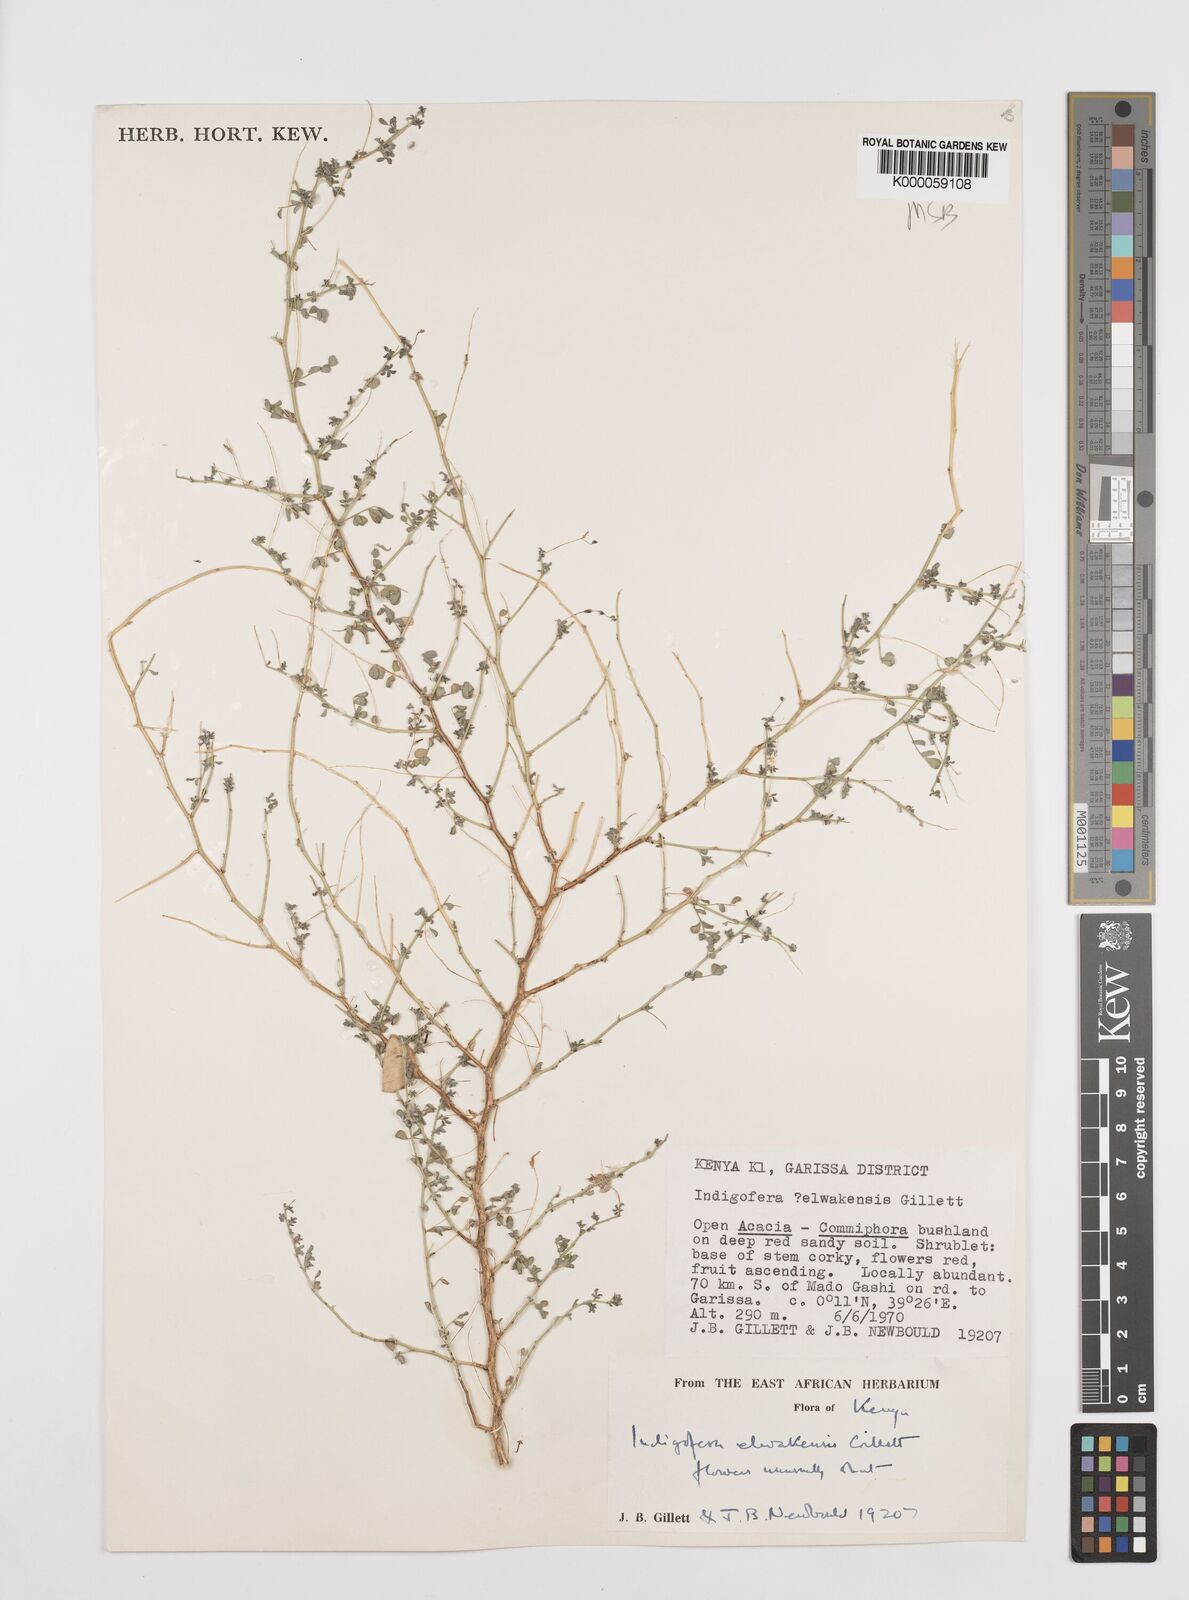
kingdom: Plantae
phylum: Tracheophyta
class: Magnoliopsida
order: Fabales
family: Fabaceae
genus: Indigofera
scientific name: Indigofera elwakensis
